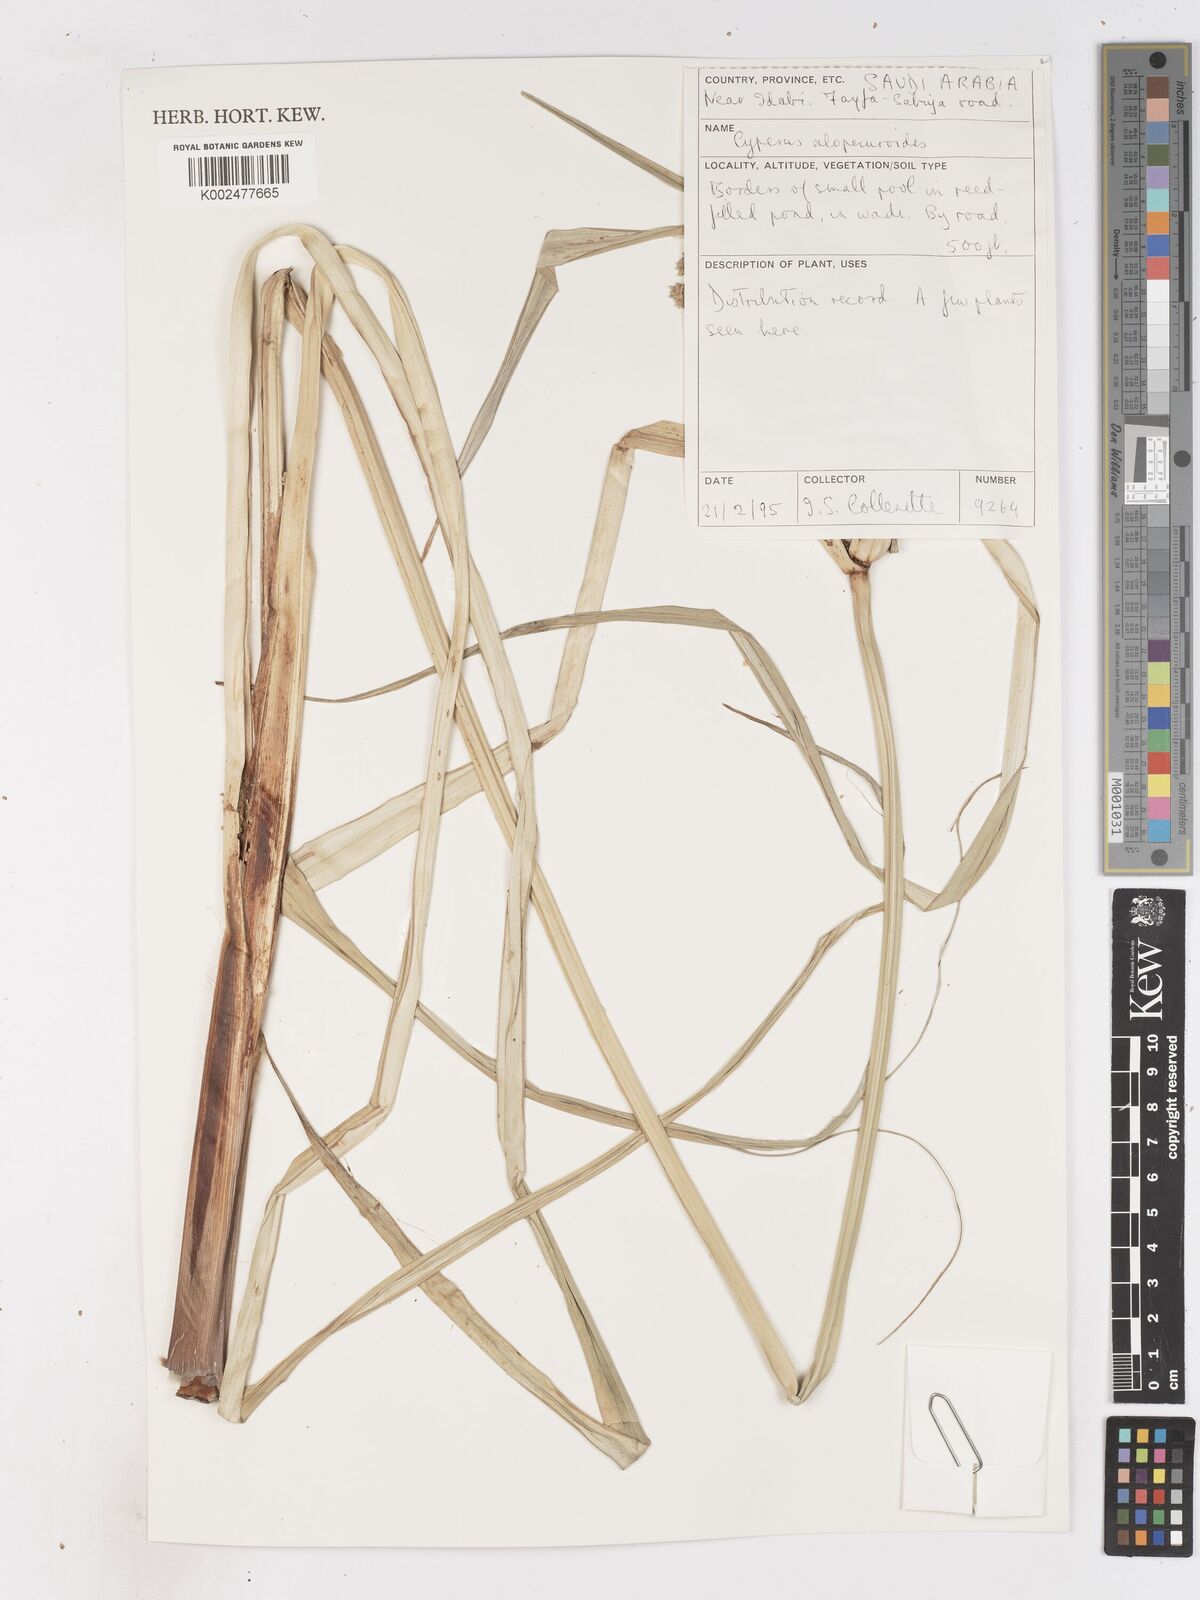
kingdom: Plantae
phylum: Tracheophyta
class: Liliopsida
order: Poales
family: Cyperaceae
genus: Cyperus
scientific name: Cyperus alopecuroides
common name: Foxtail flatsedge
